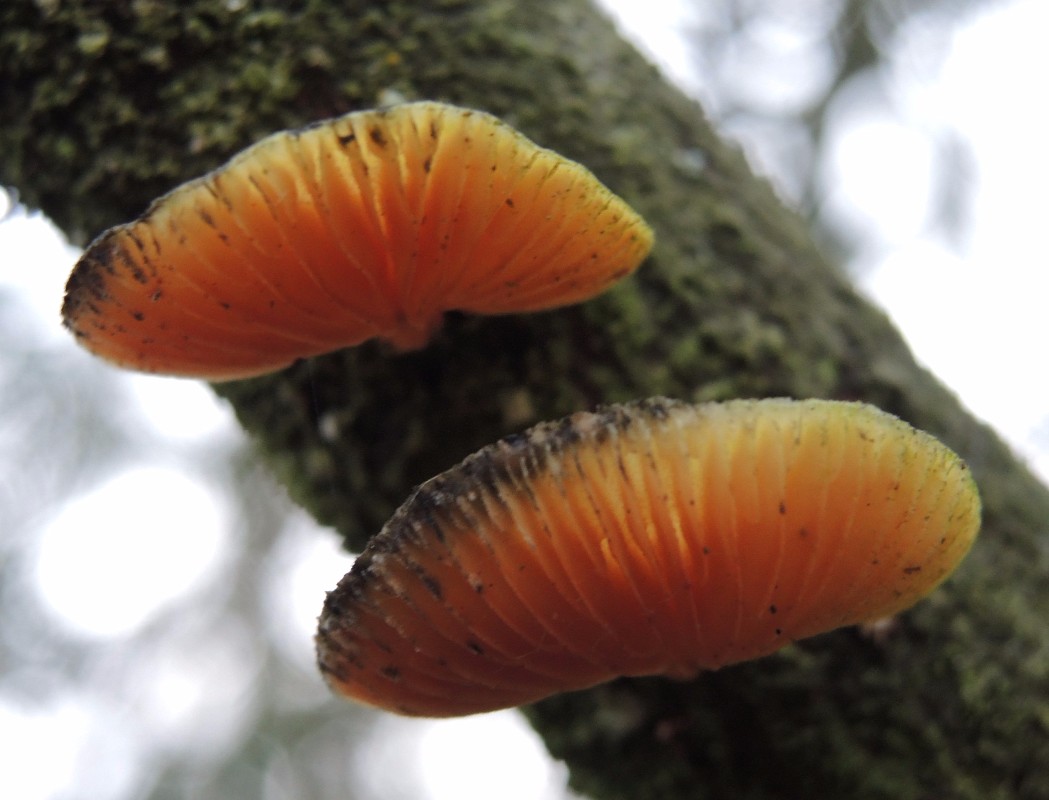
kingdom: Fungi
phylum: Basidiomycota
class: Agaricomycetes
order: Polyporales
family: Polyporaceae
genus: Neofavolus
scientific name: Neofavolus suavissimus
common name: anishat
